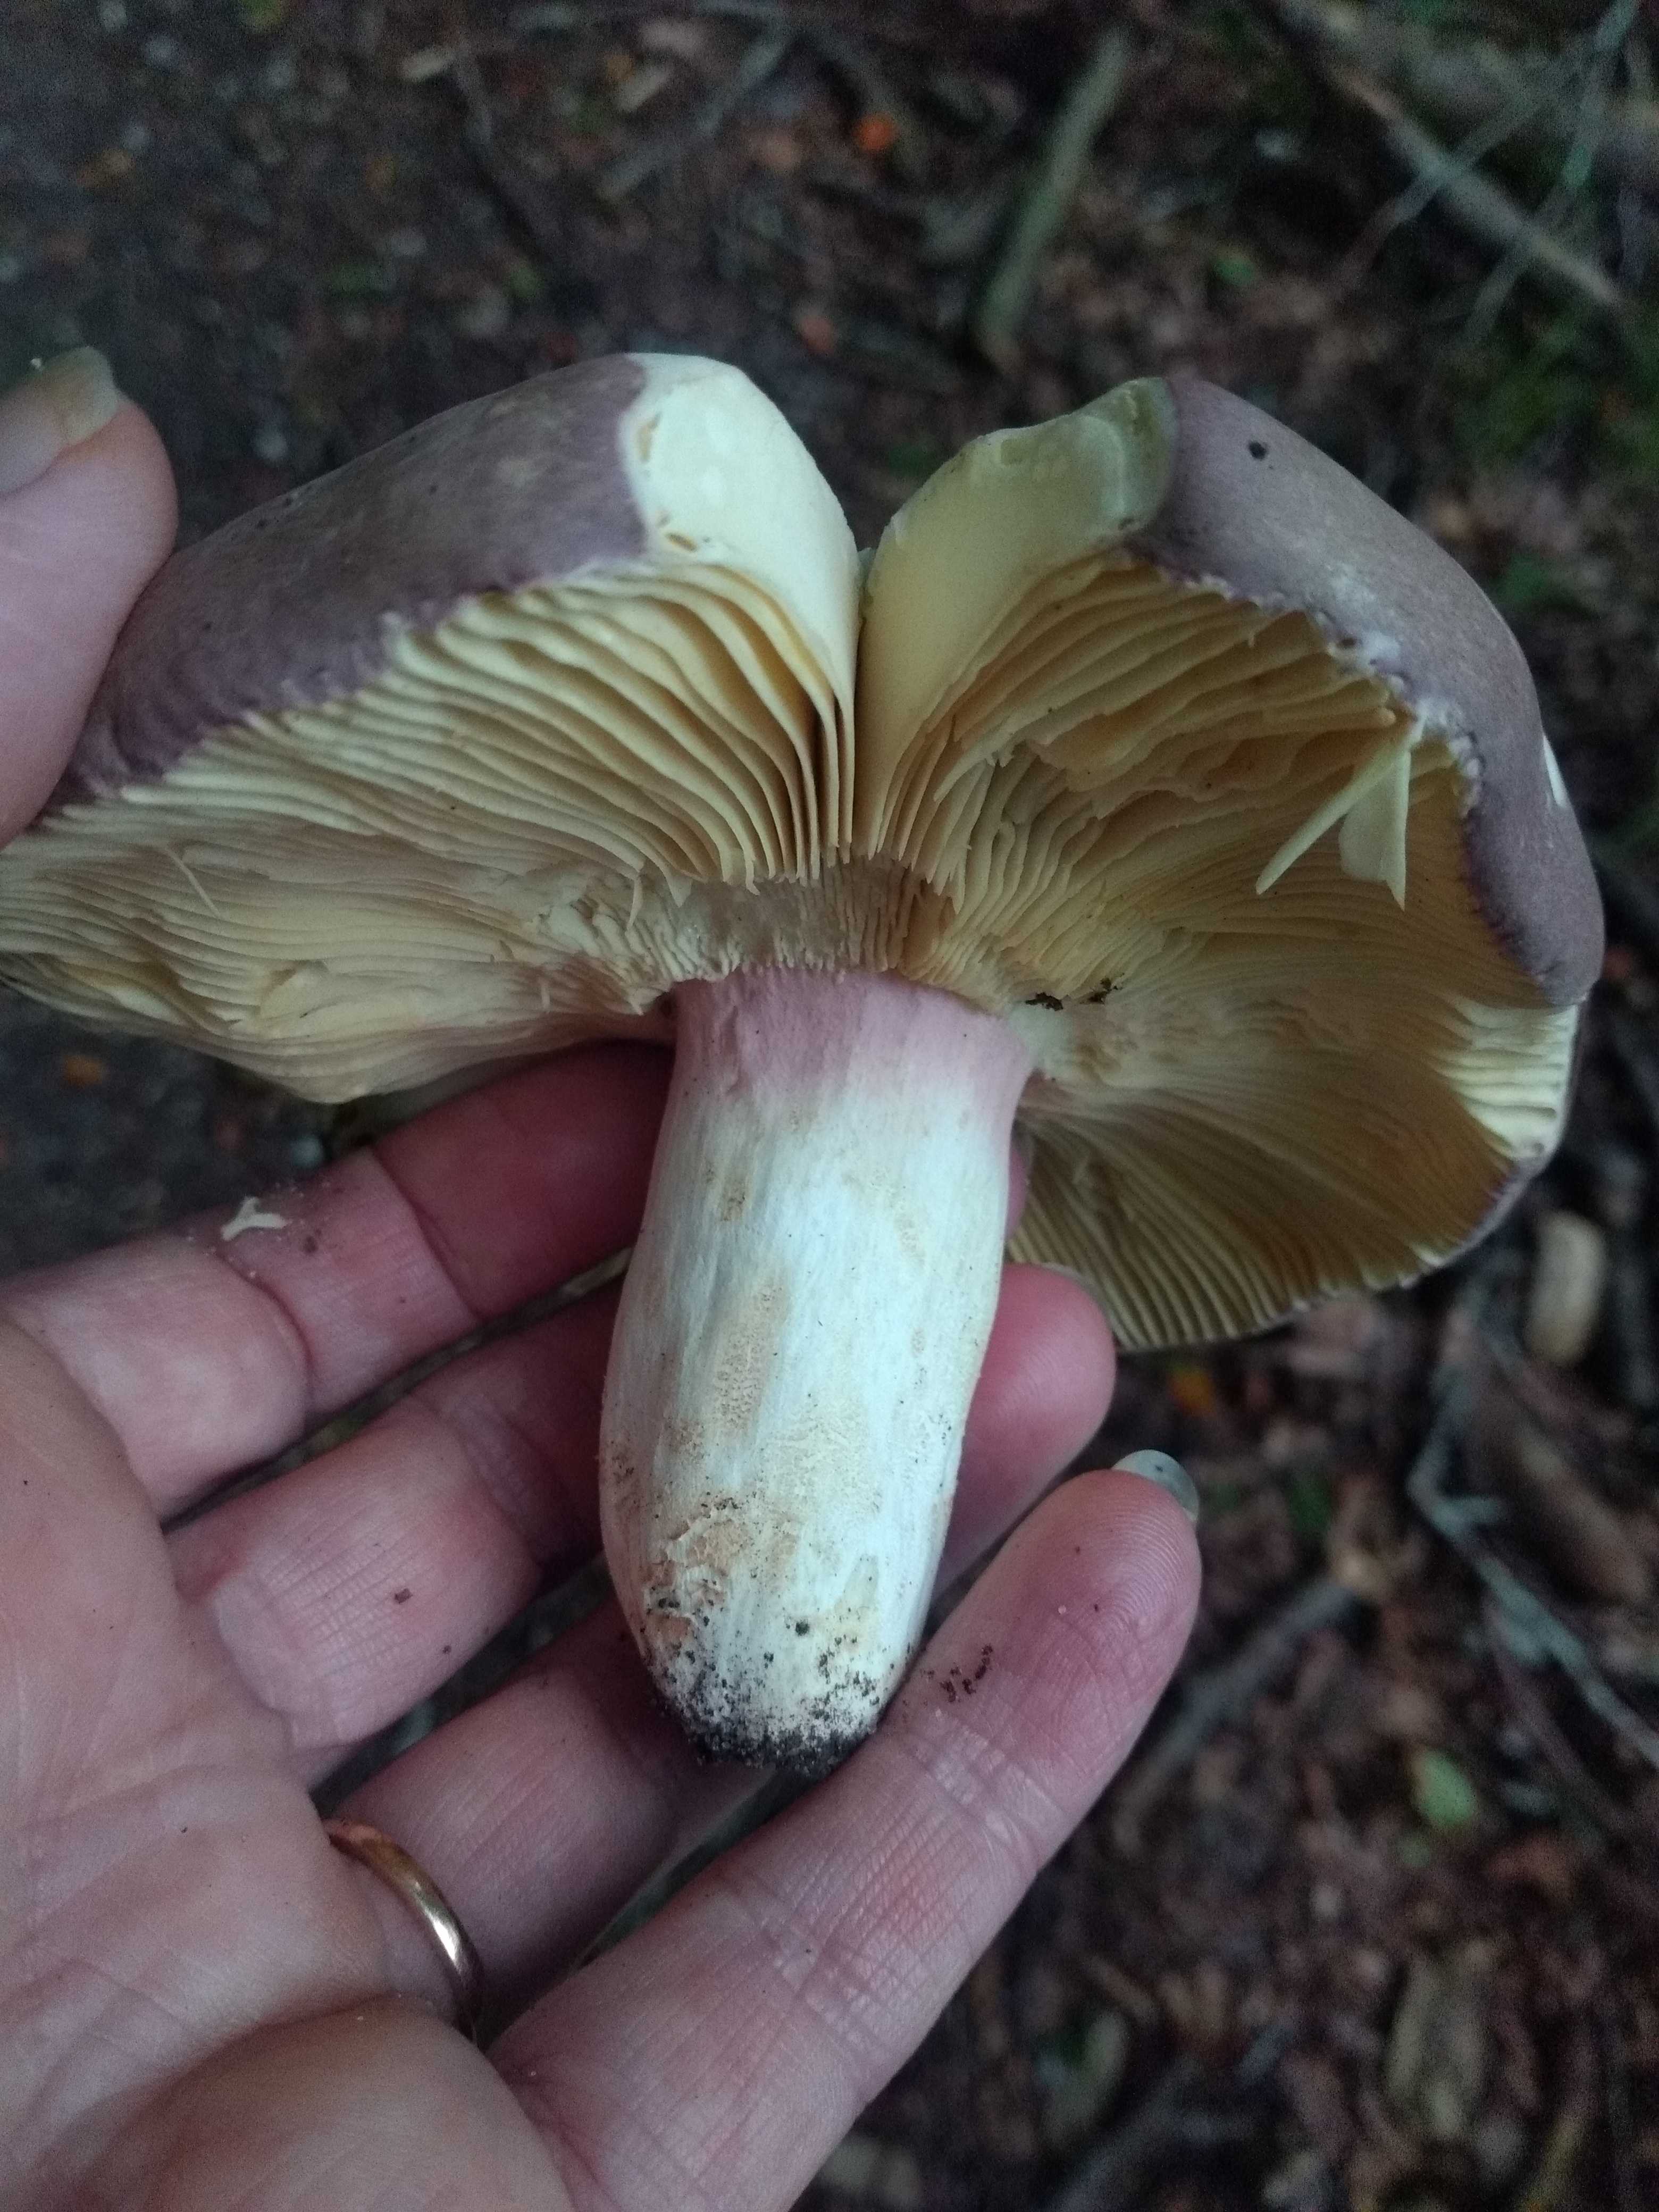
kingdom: Fungi
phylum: Basidiomycota
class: Agaricomycetes
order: Russulales
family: Russulaceae
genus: Russula
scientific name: Russula olivacea
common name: stor skørhat
